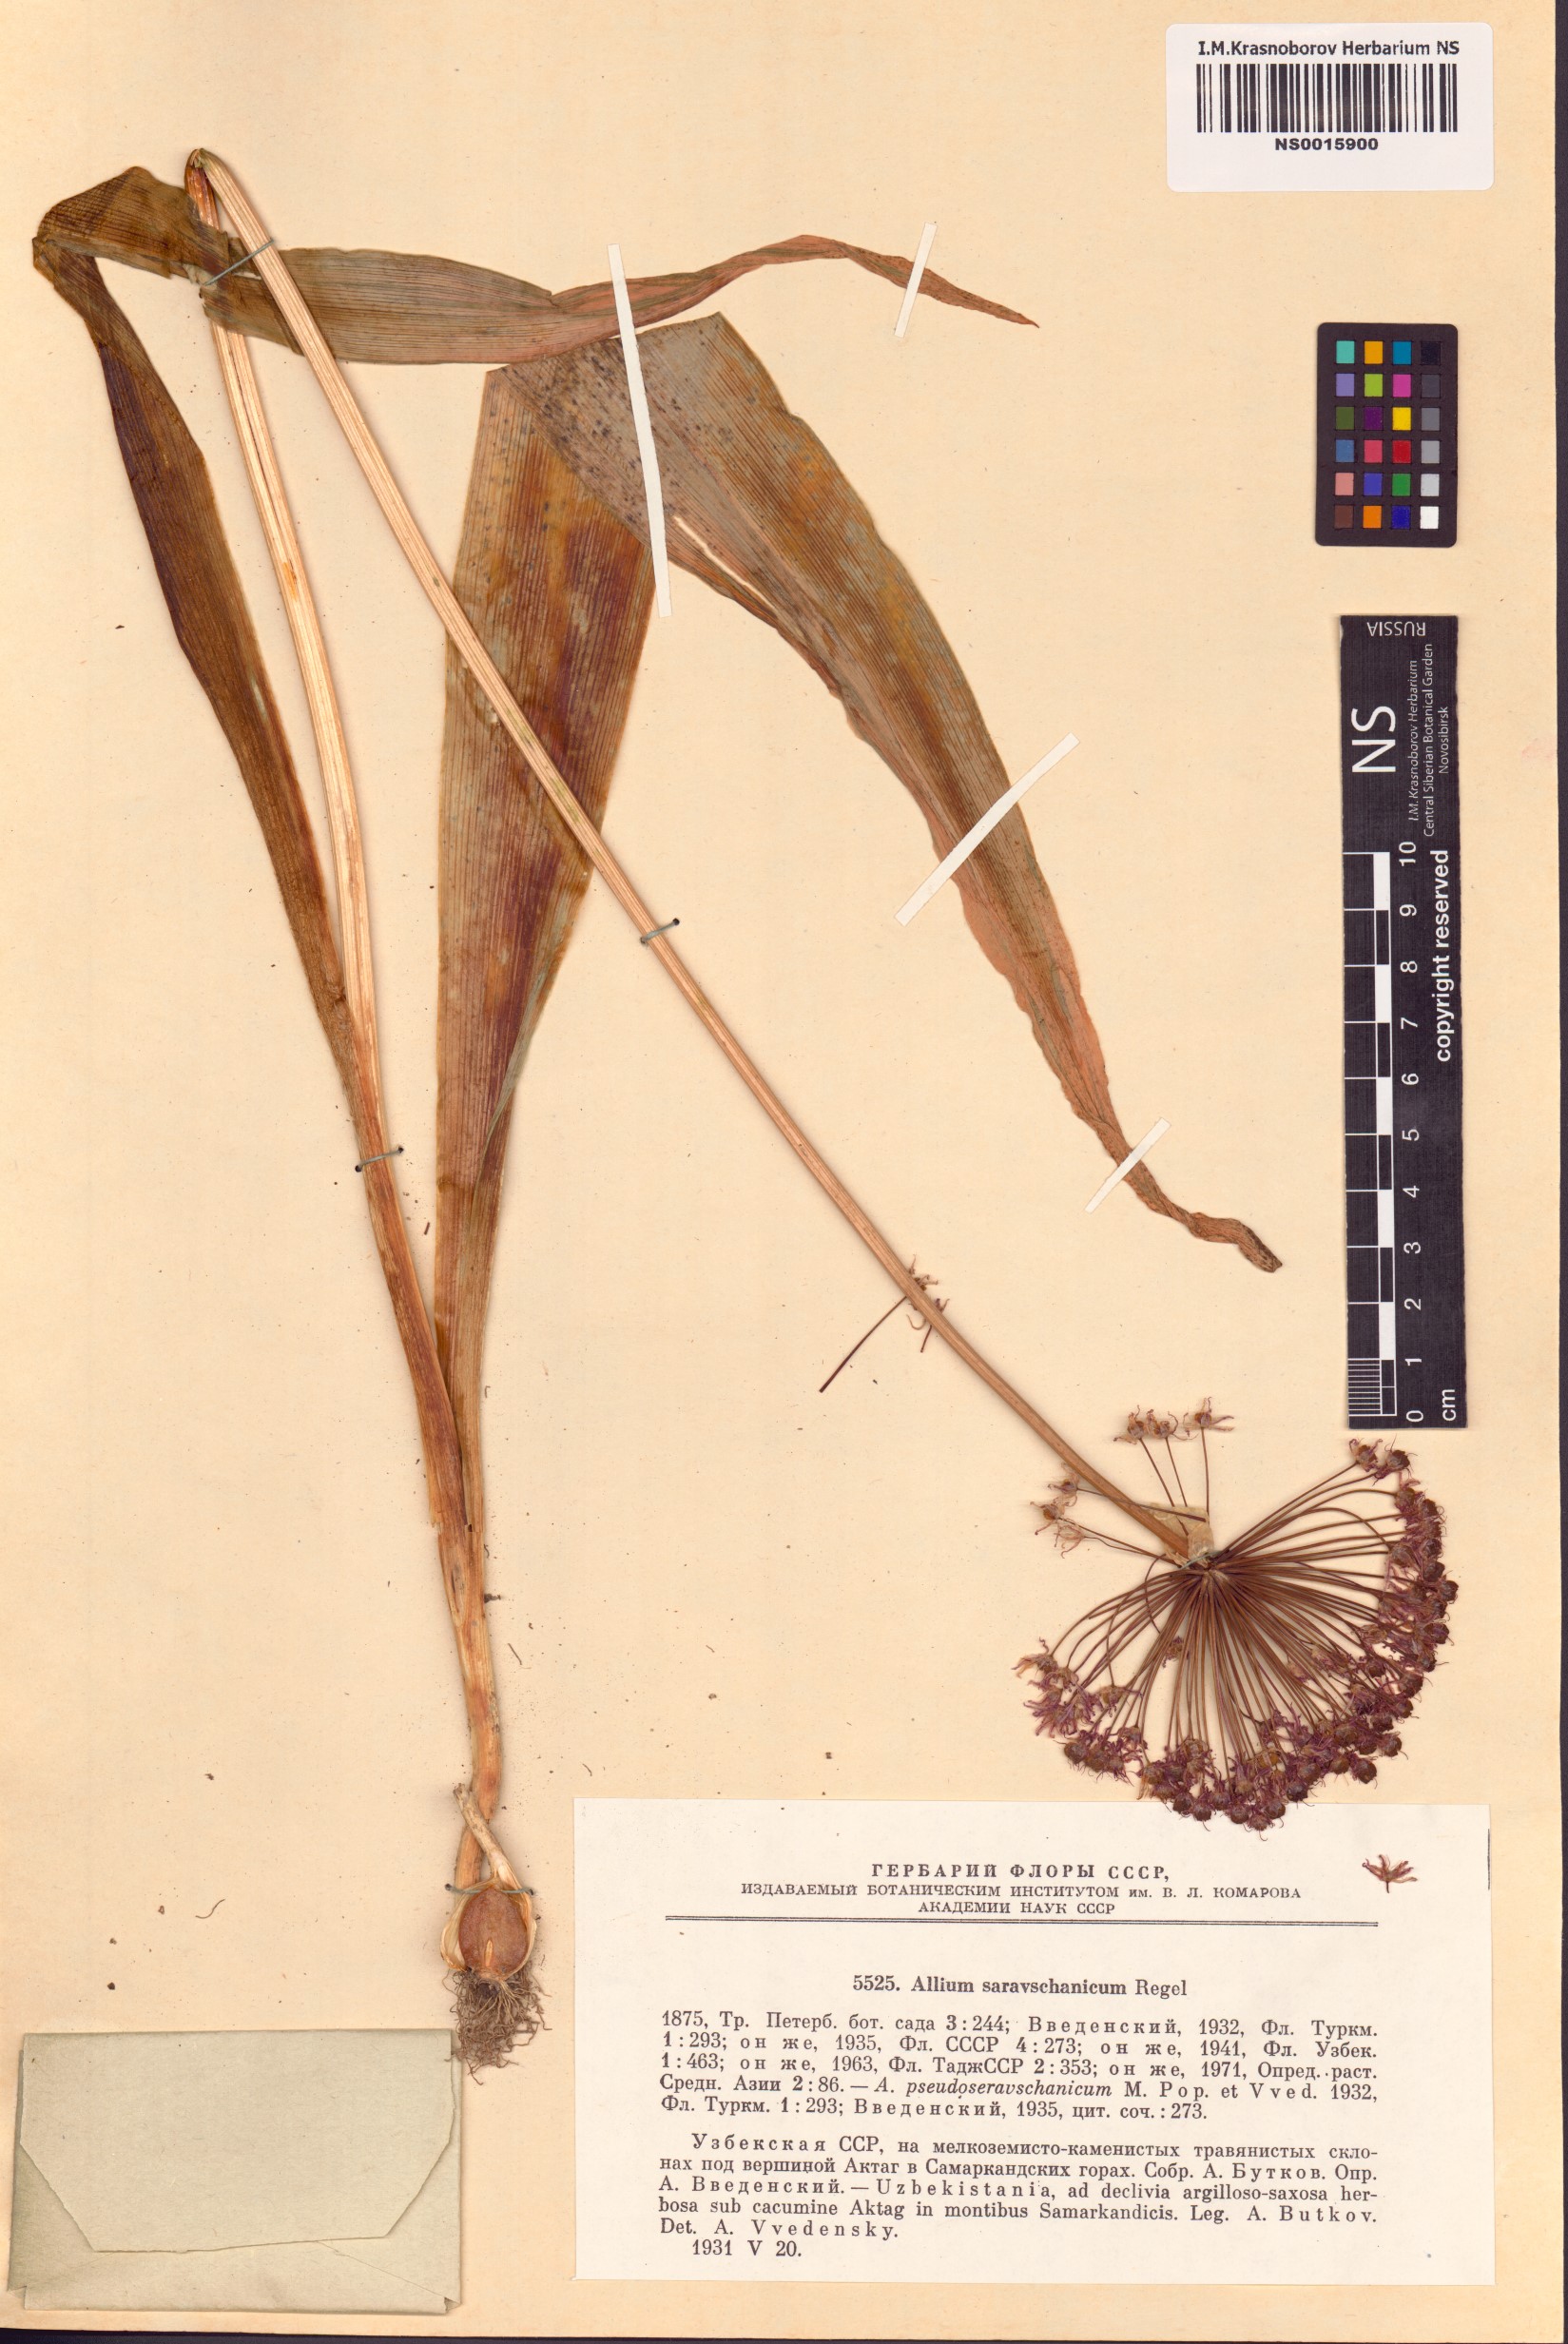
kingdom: Plantae
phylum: Tracheophyta
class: Liliopsida
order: Asparagales
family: Amaryllidaceae
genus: Allium
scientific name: Allium sarawschanicum
